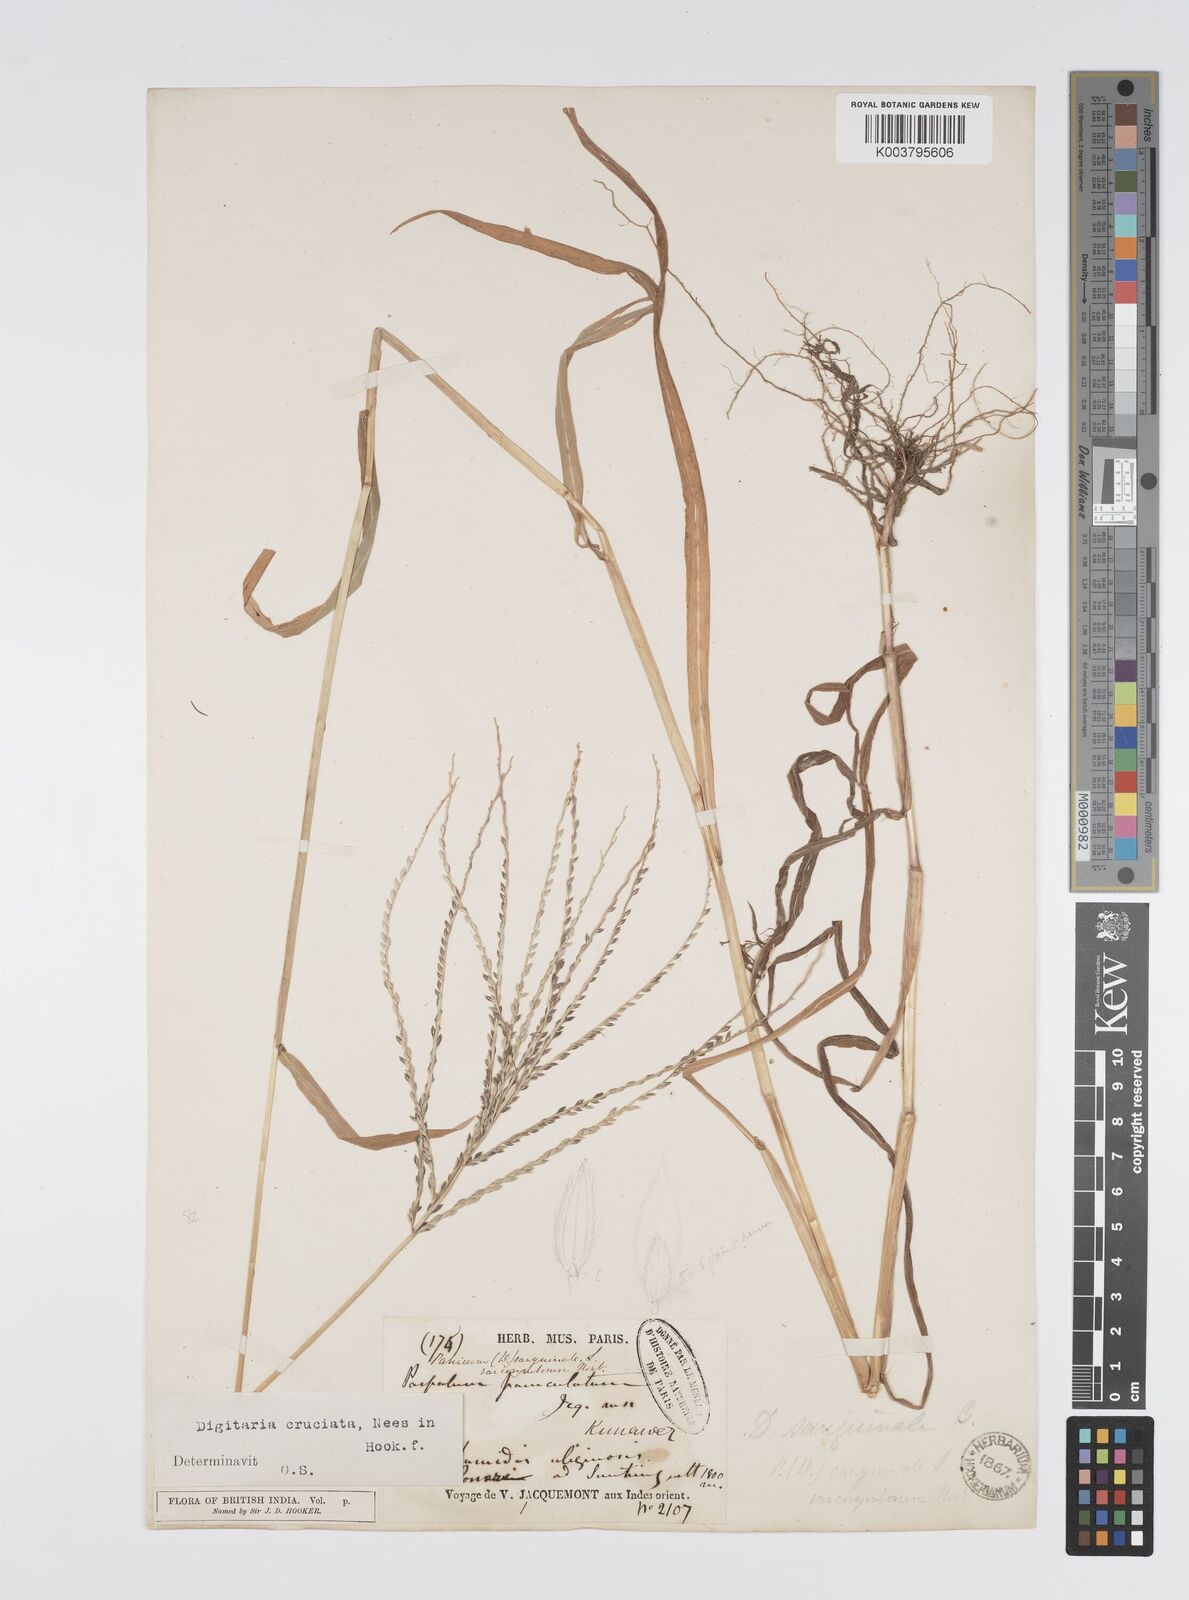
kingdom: Plantae
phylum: Tracheophyta
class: Liliopsida
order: Poales
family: Poaceae
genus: Digitaria
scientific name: Digitaria sanguinalis
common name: Hairy crabgrass
